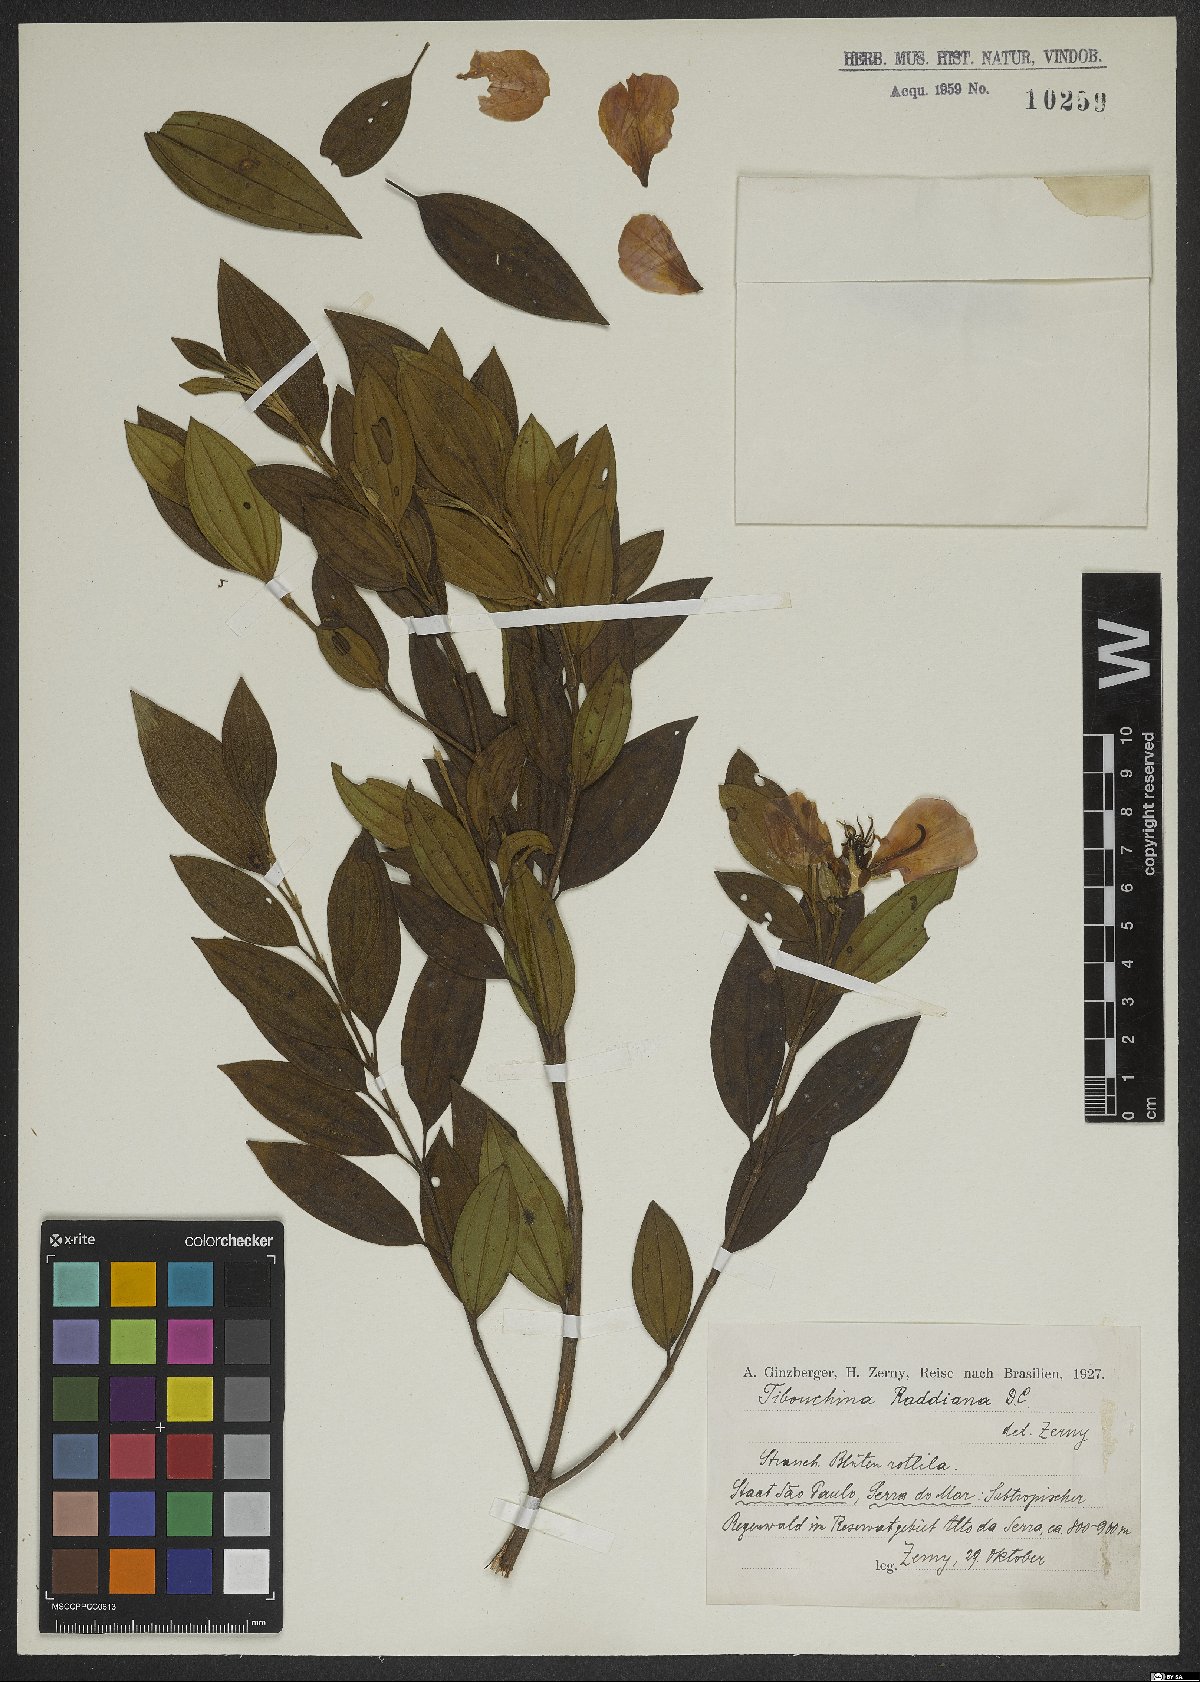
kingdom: Plantae
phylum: Tracheophyta
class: Magnoliopsida
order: Myrtales
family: Melastomataceae
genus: Pleroma
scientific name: Pleroma raddianum
